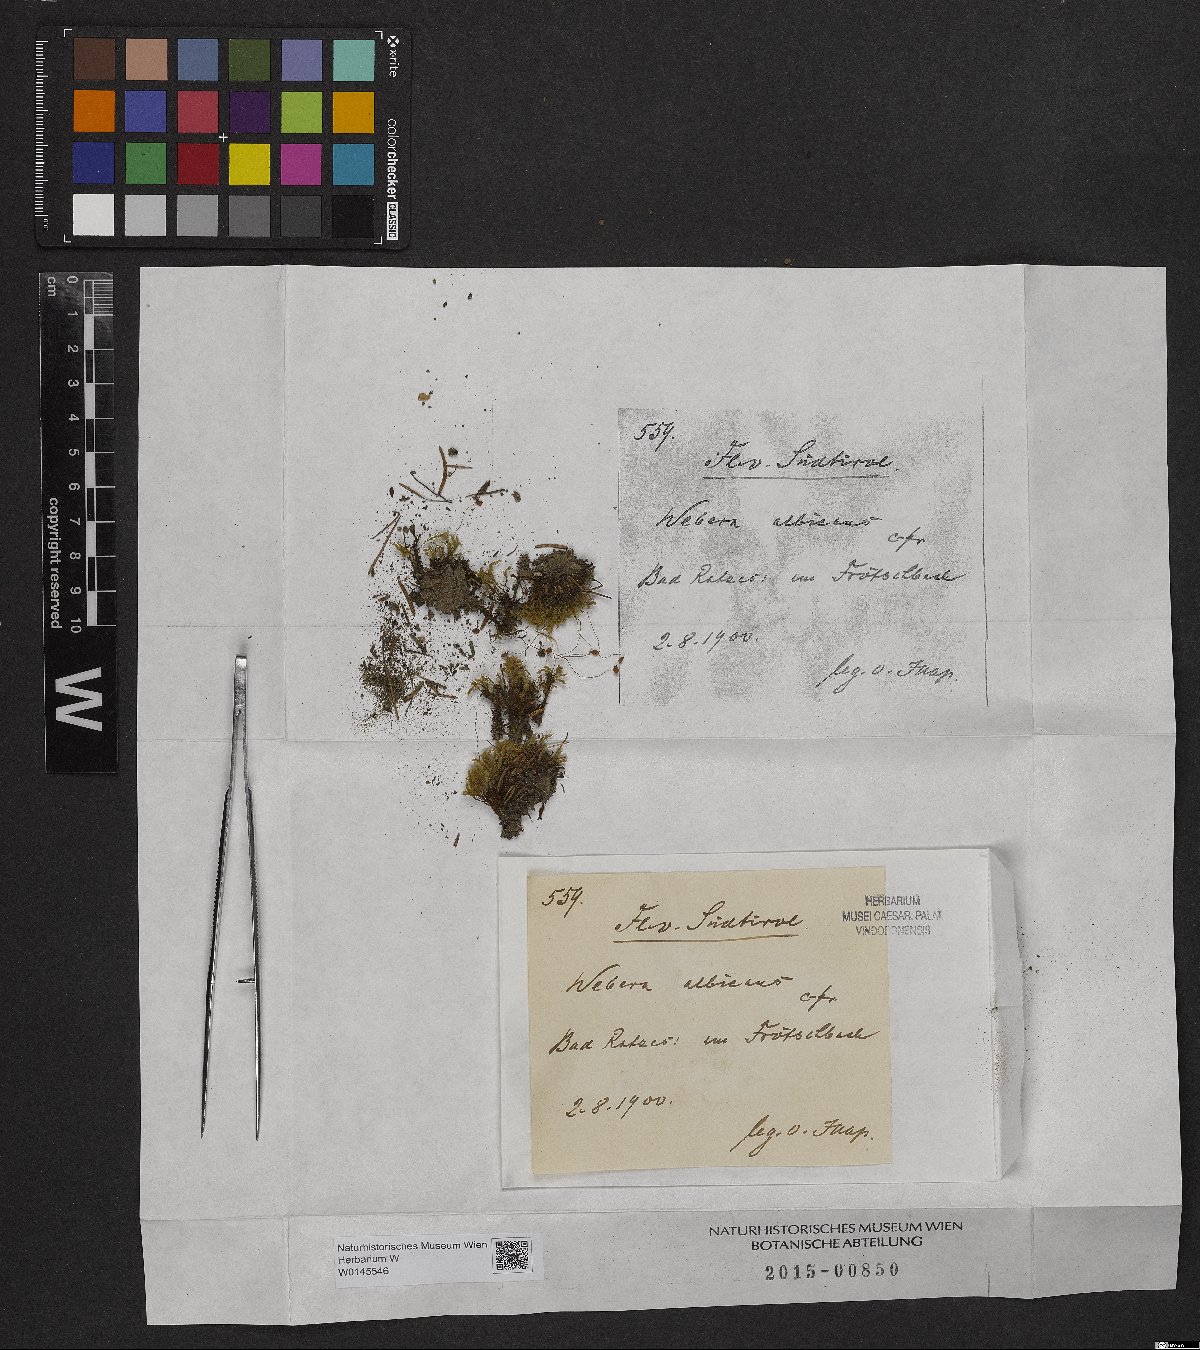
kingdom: Plantae
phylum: Bryophyta
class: Bryopsida
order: Bryales
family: Mniaceae
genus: Pohlia
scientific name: Pohlia wahlenbergii
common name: Wahlenberg's nodding moss
